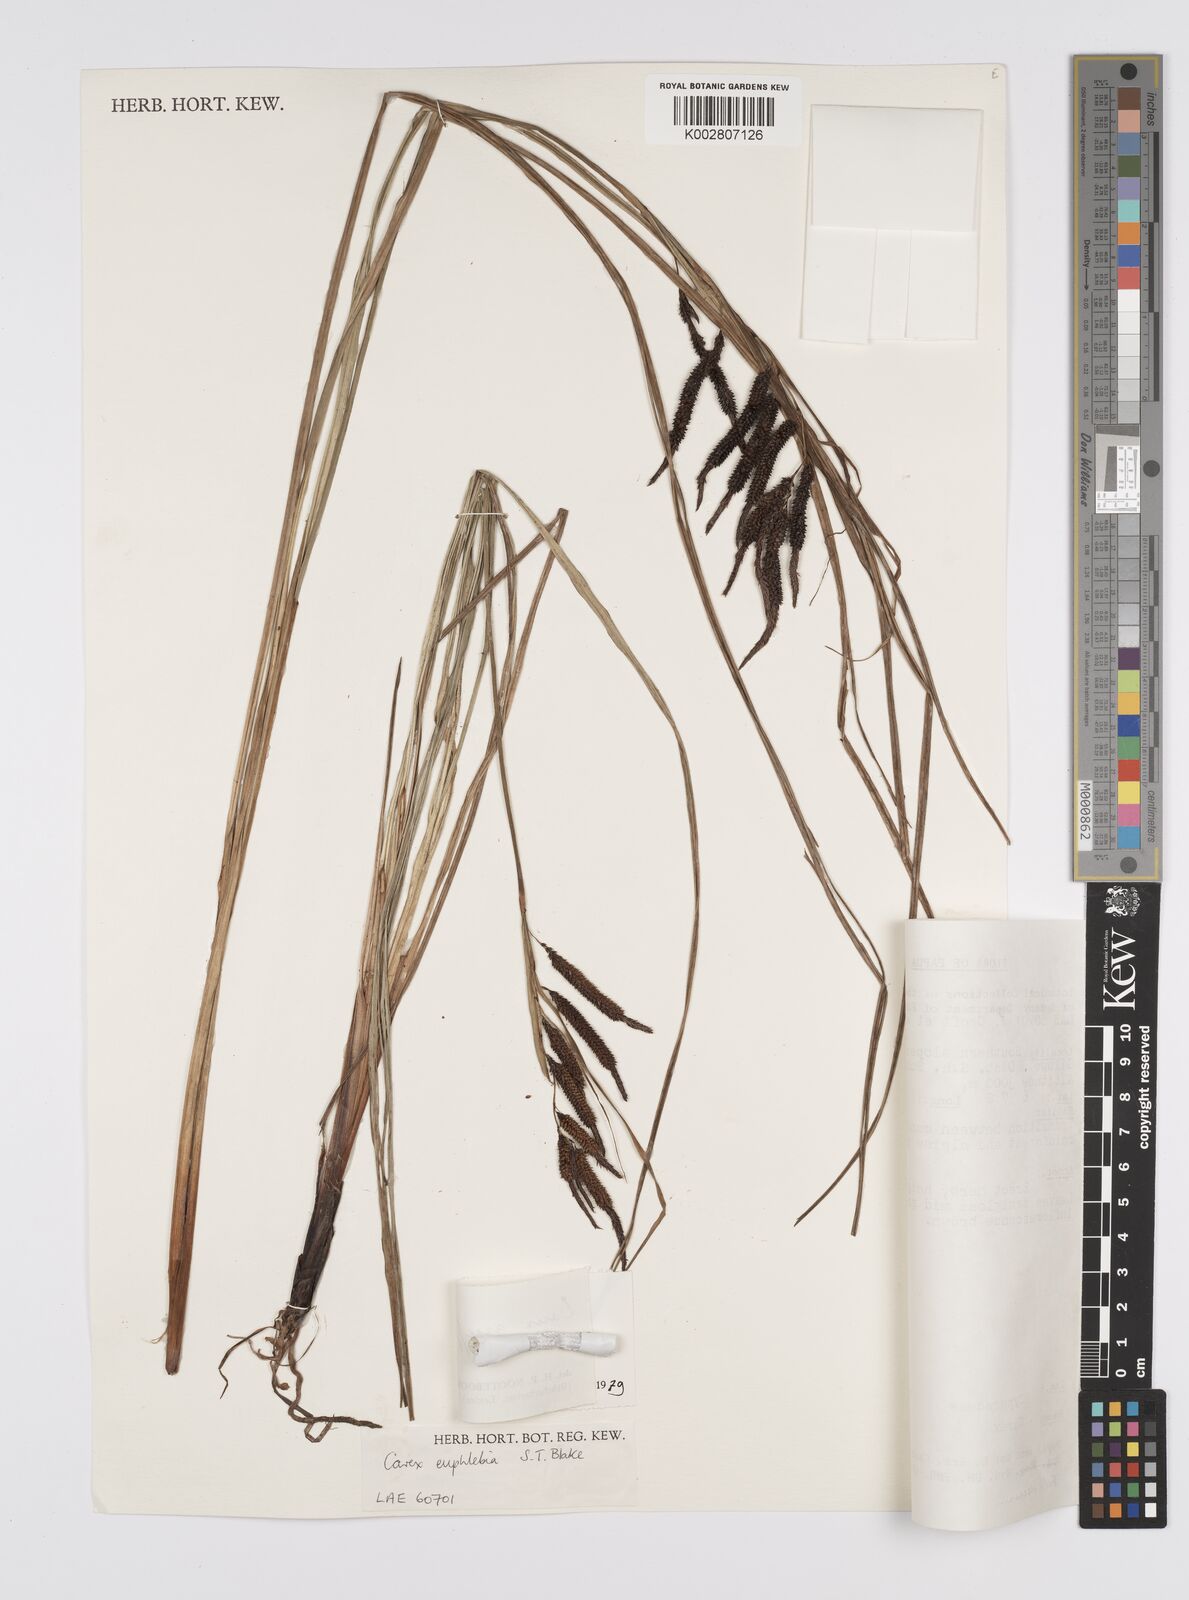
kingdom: Plantae
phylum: Tracheophyta
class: Liliopsida
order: Poales
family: Cyperaceae
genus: Carex
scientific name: Carex graeffeana
